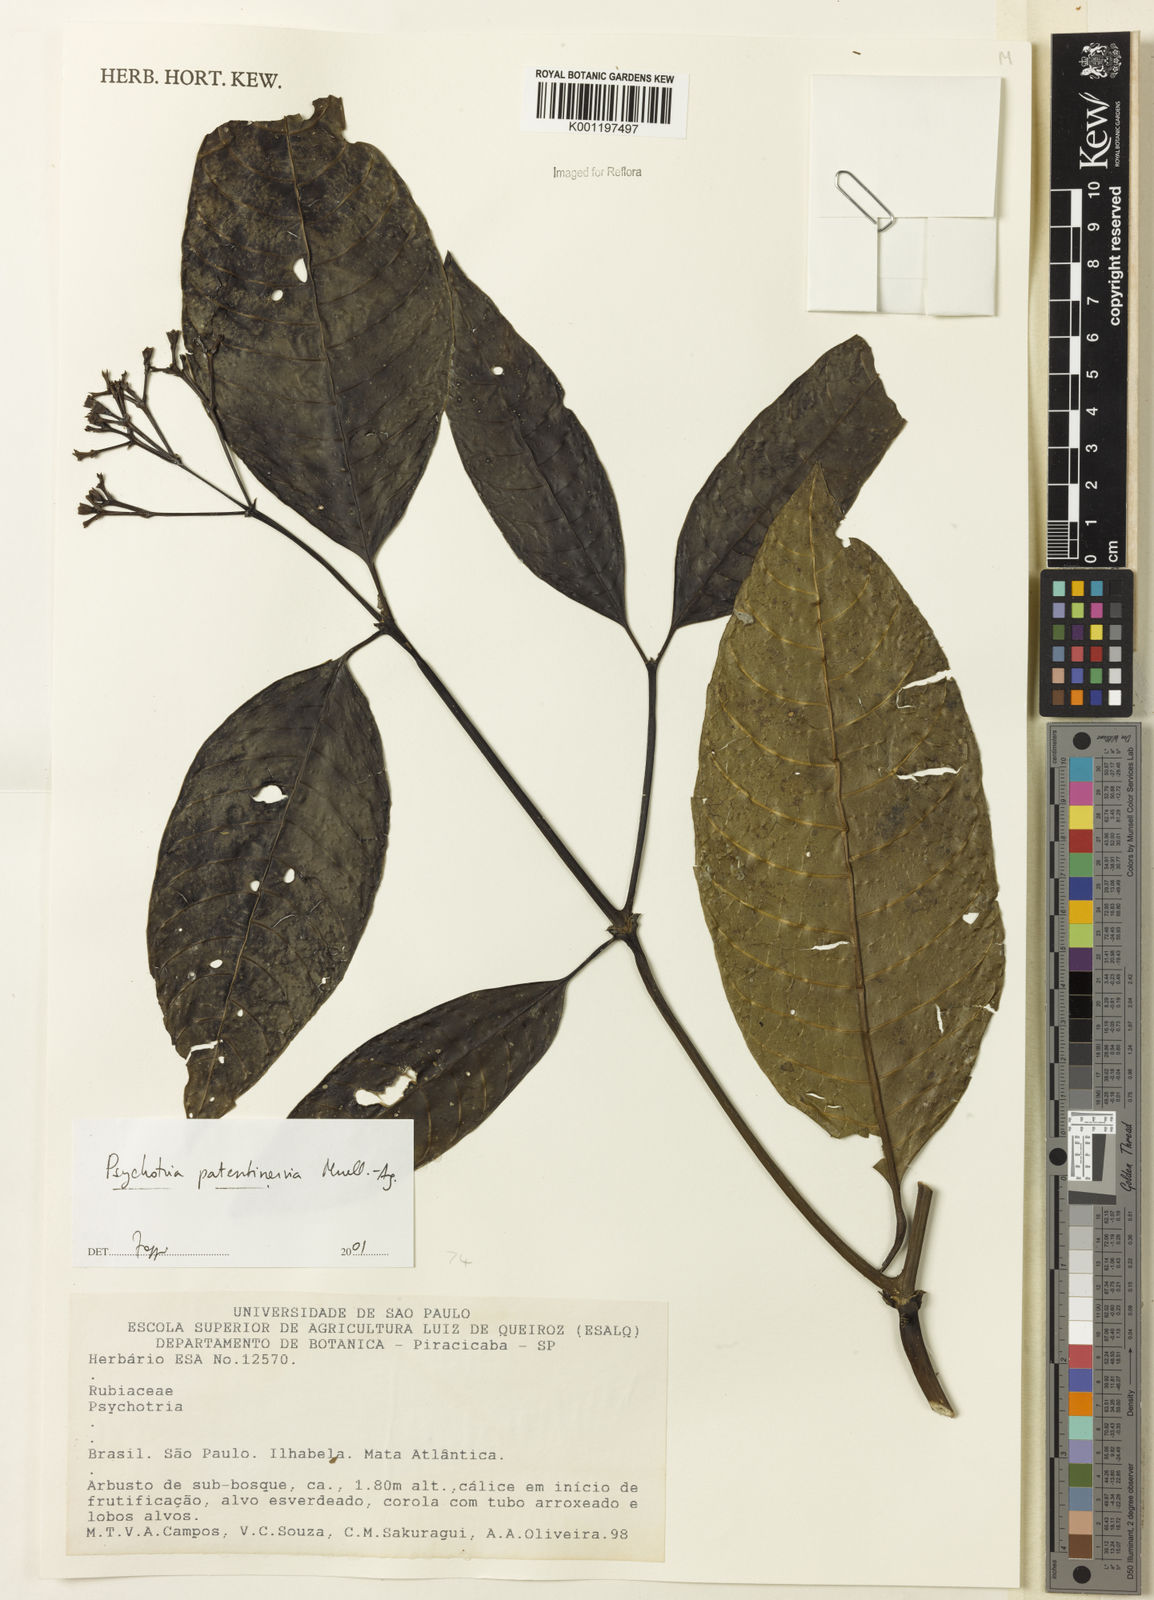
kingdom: Plantae
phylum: Tracheophyta
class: Magnoliopsida
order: Gentianales
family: Rubiaceae
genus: Psychotria
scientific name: Psychotria
